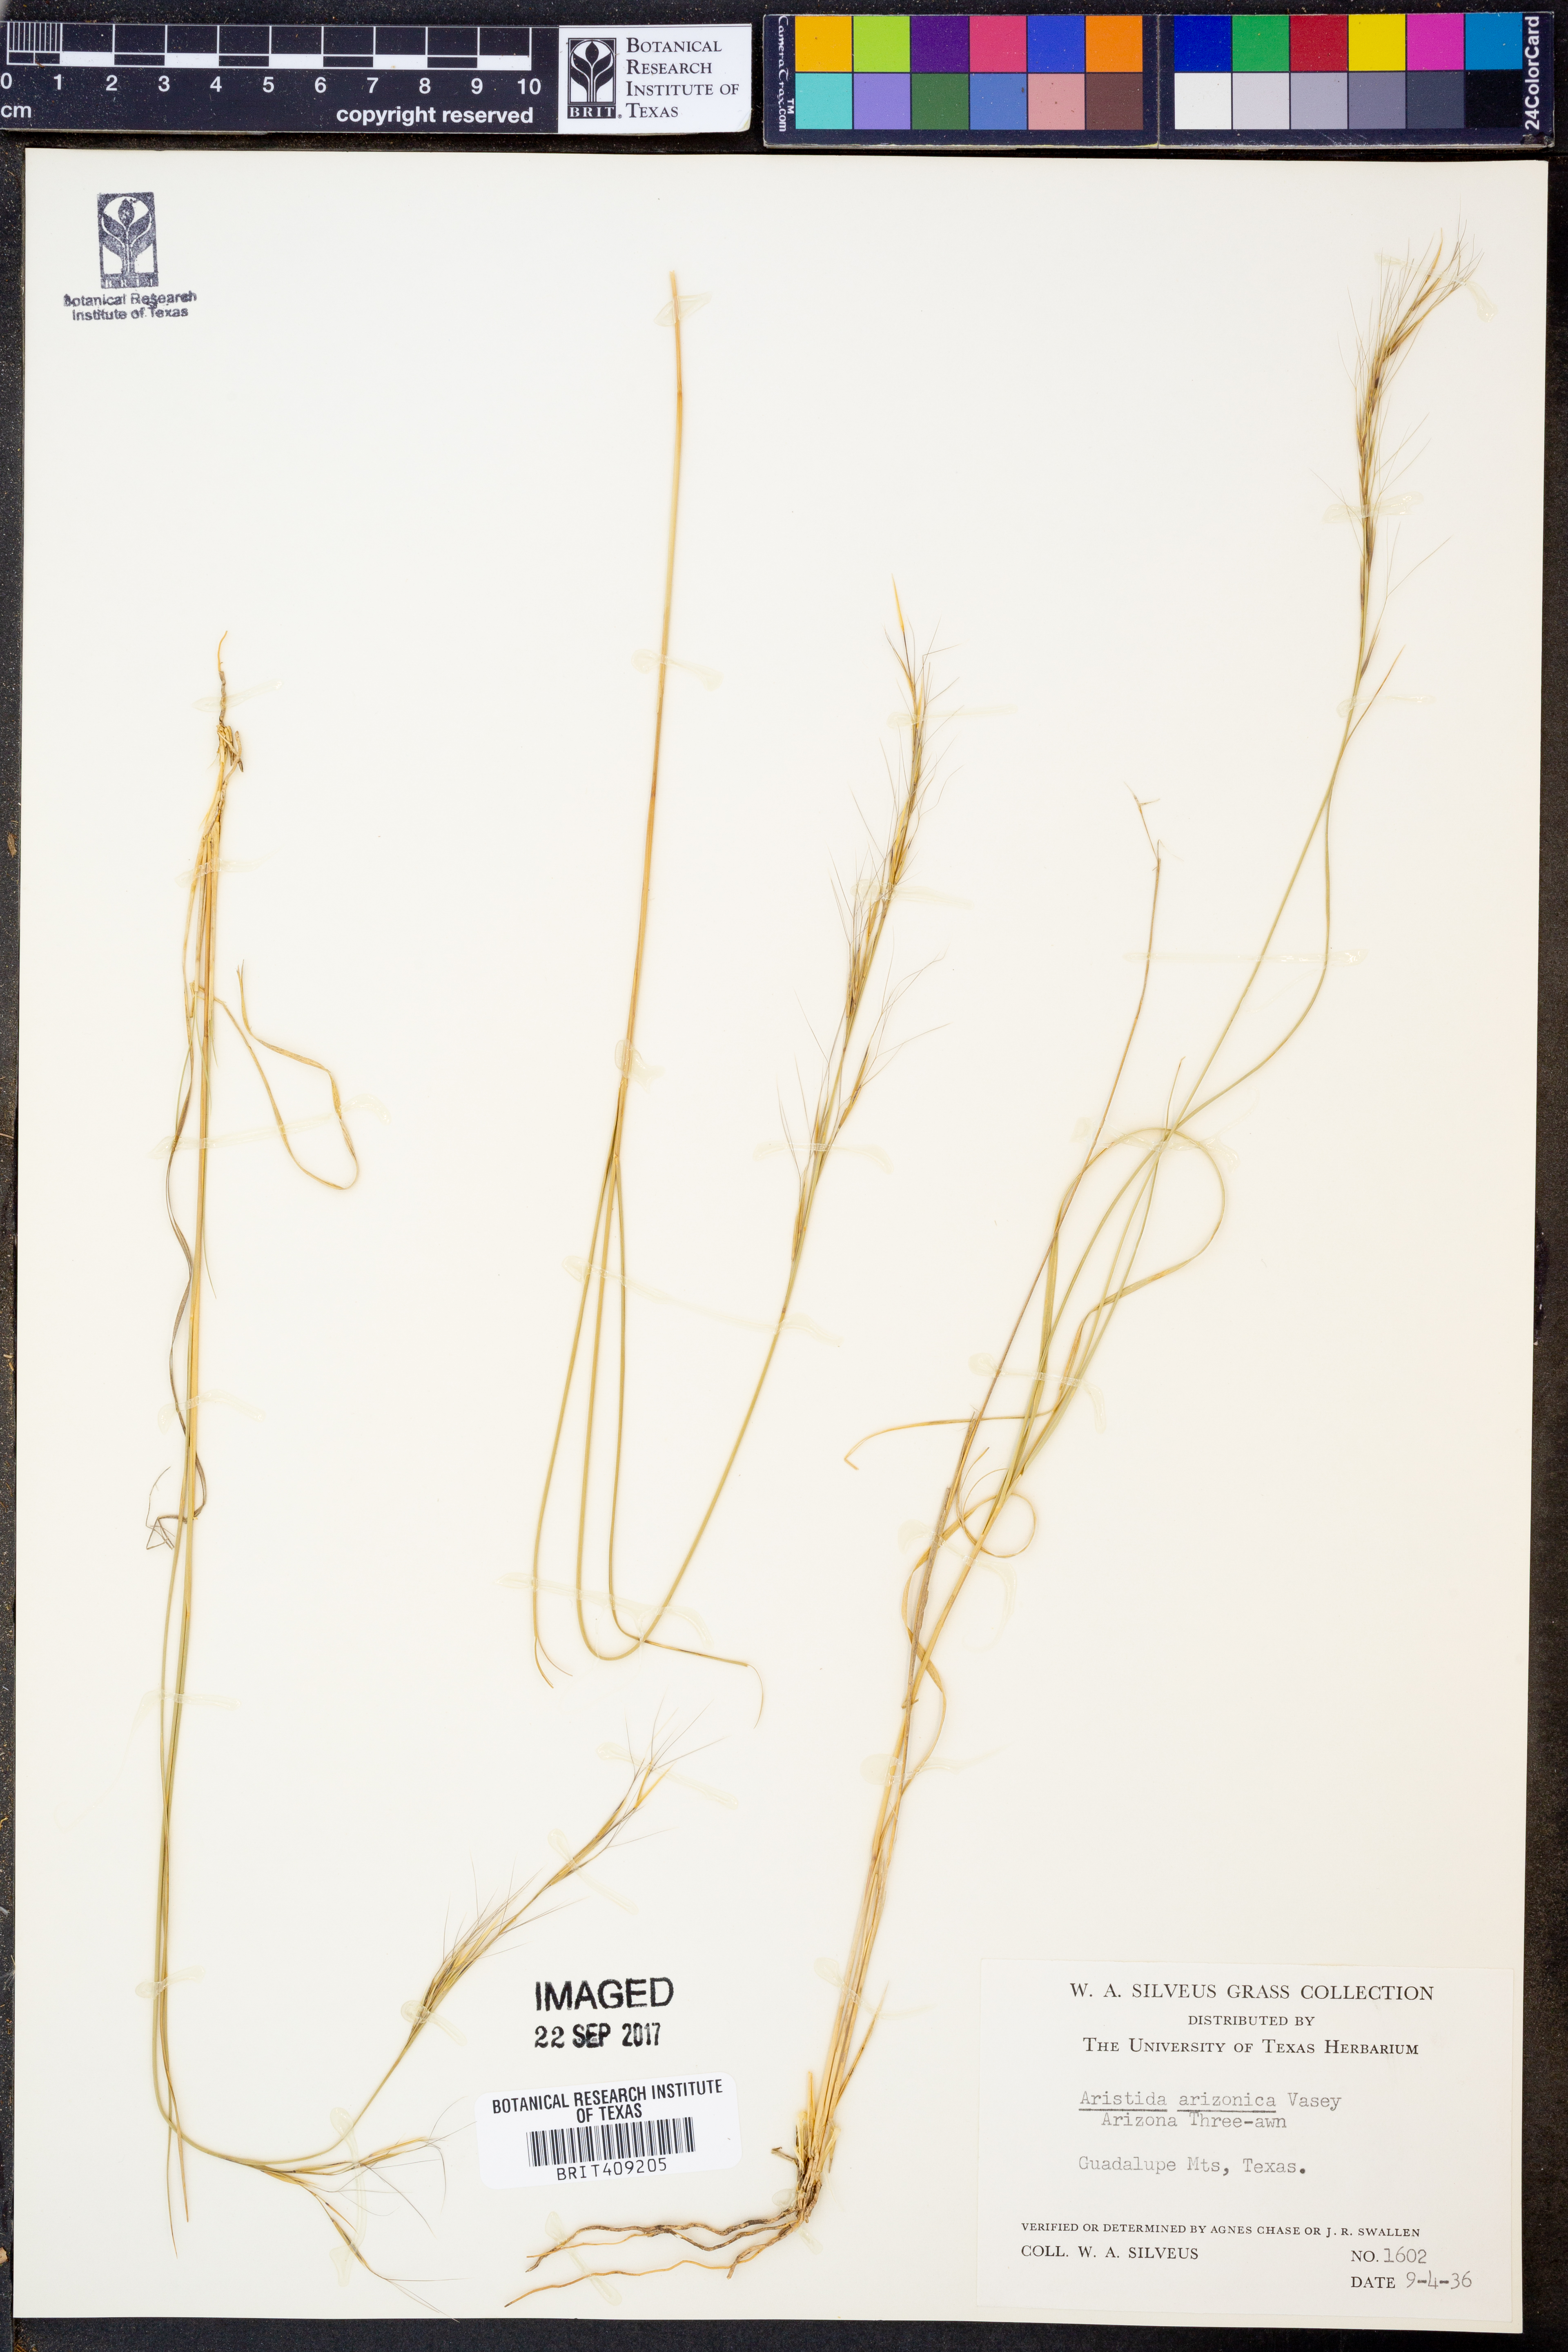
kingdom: Plantae
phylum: Tracheophyta
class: Liliopsida
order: Poales
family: Poaceae
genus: Aristida
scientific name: Aristida arizonica
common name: Arizona threeawn
